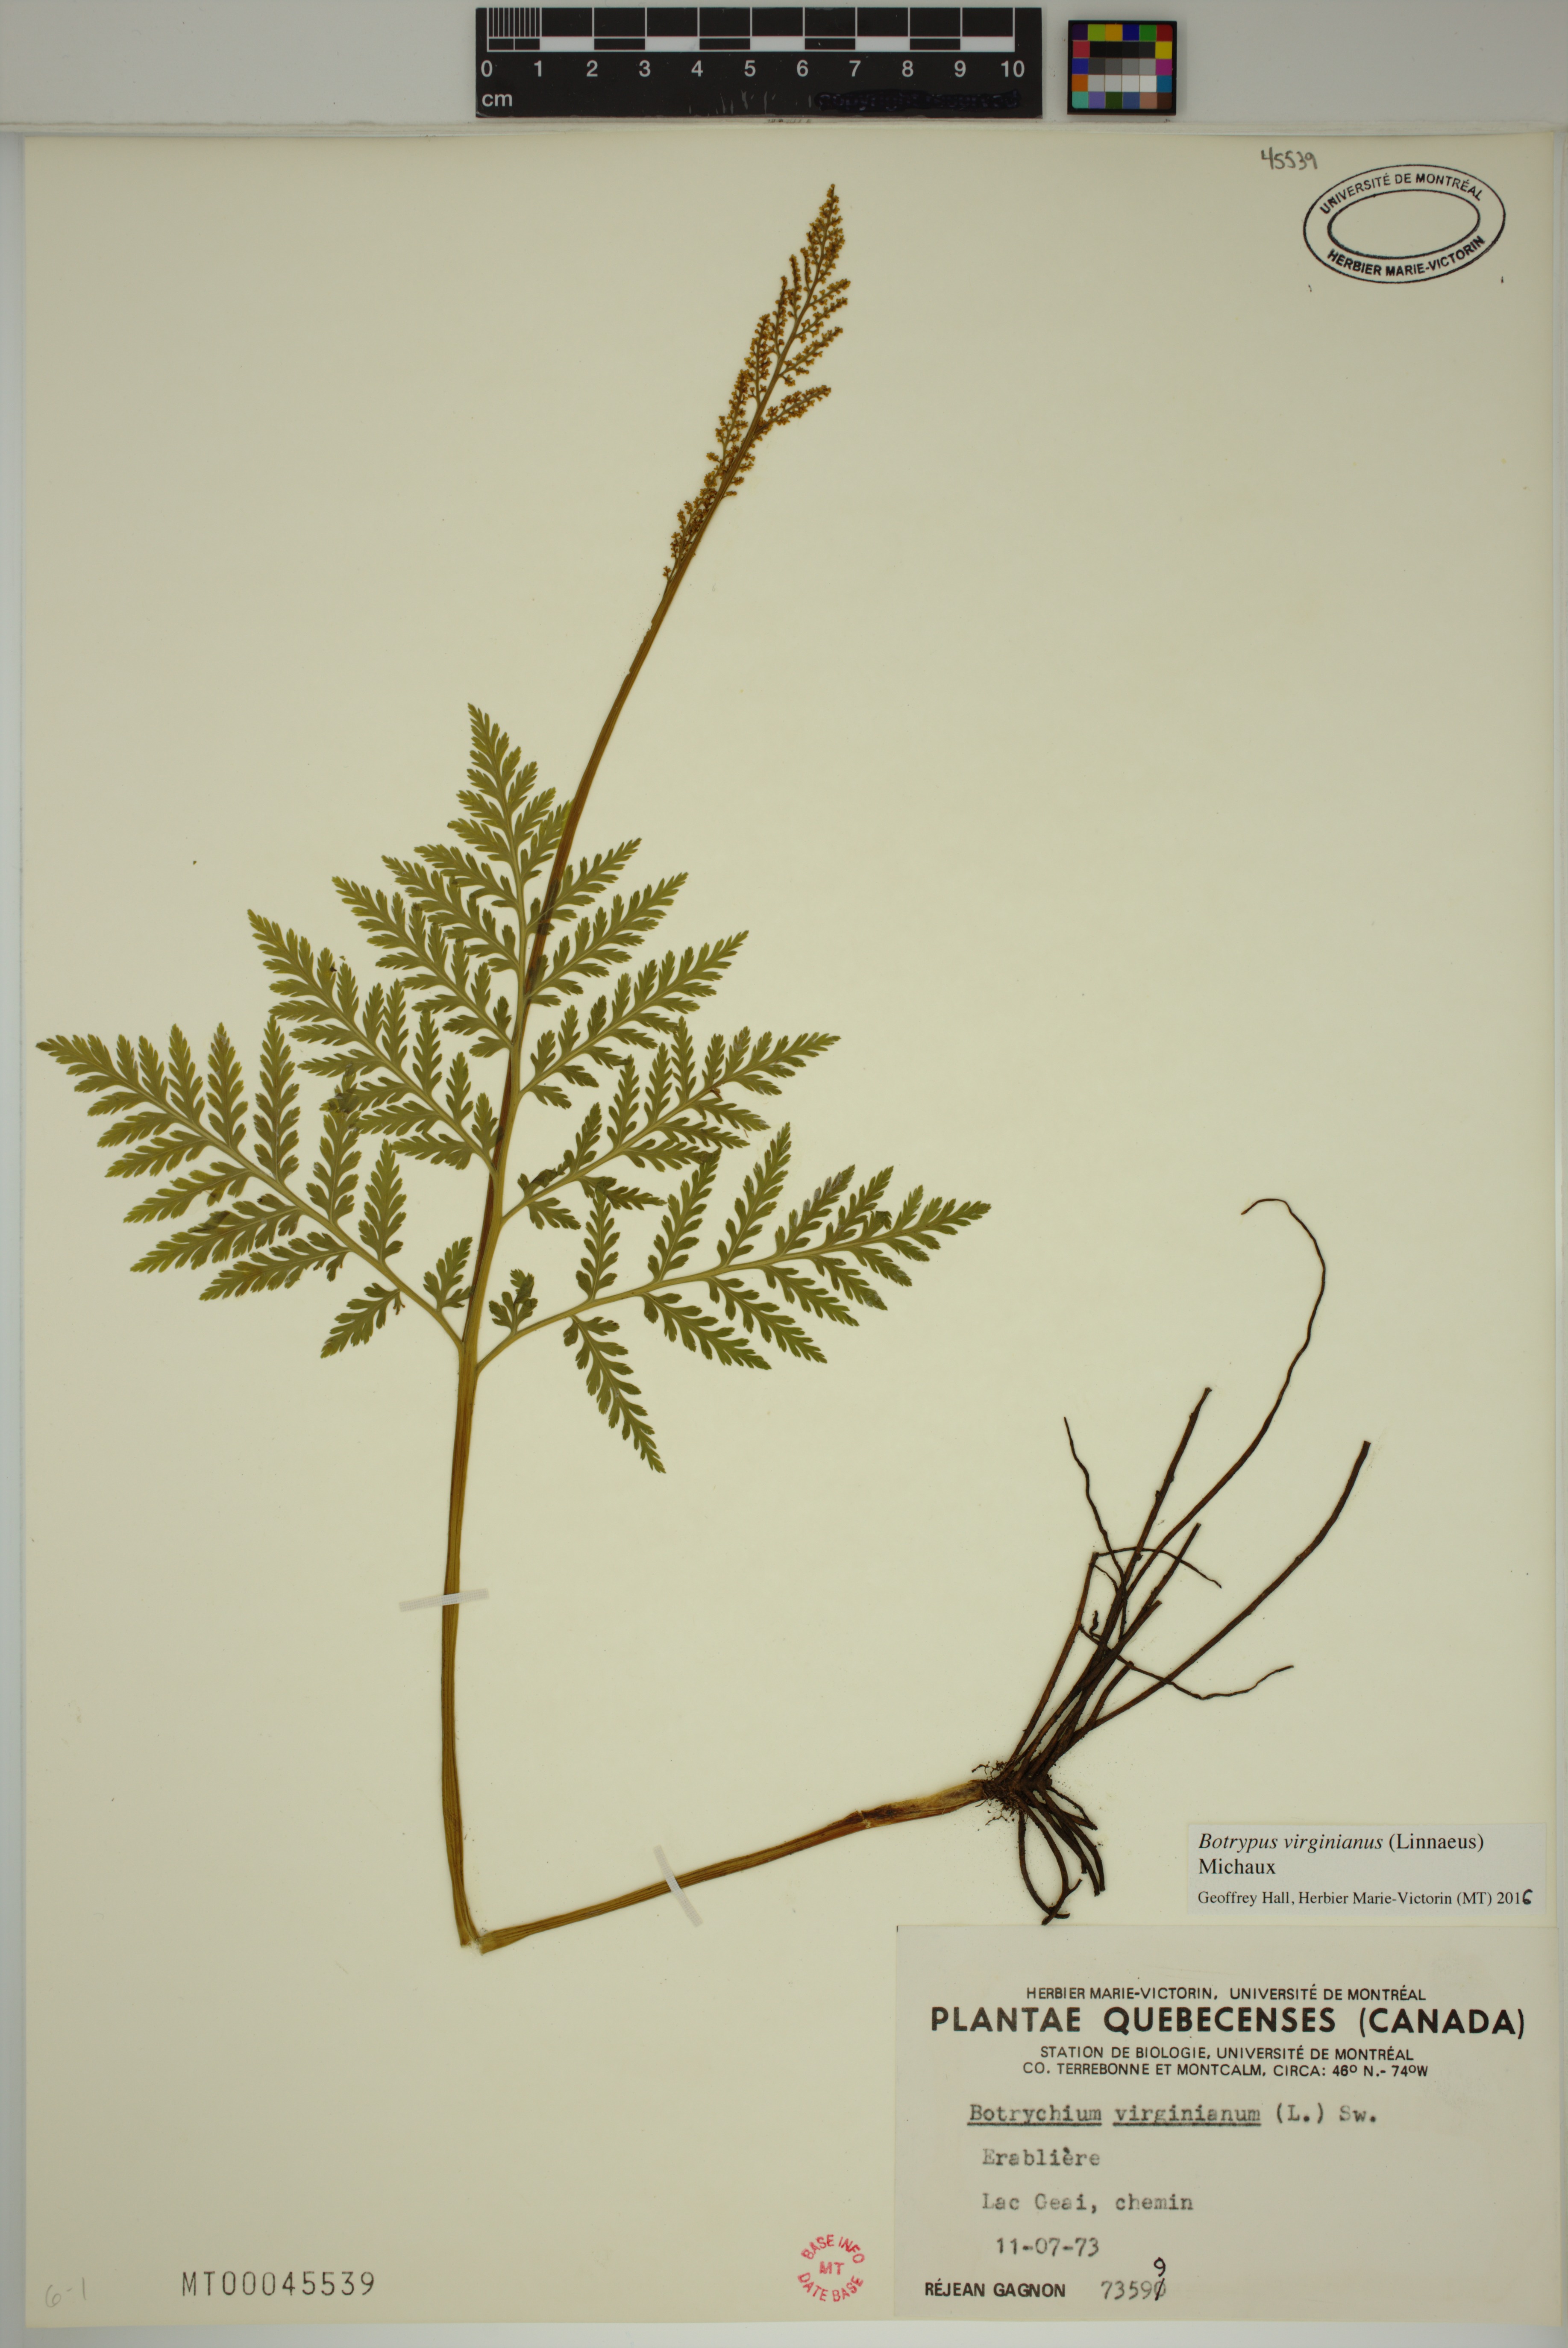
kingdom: Plantae
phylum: Tracheophyta
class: Polypodiopsida
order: Ophioglossales
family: Ophioglossaceae
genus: Botrypus
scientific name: Botrypus virginianus
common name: Common grapefern
